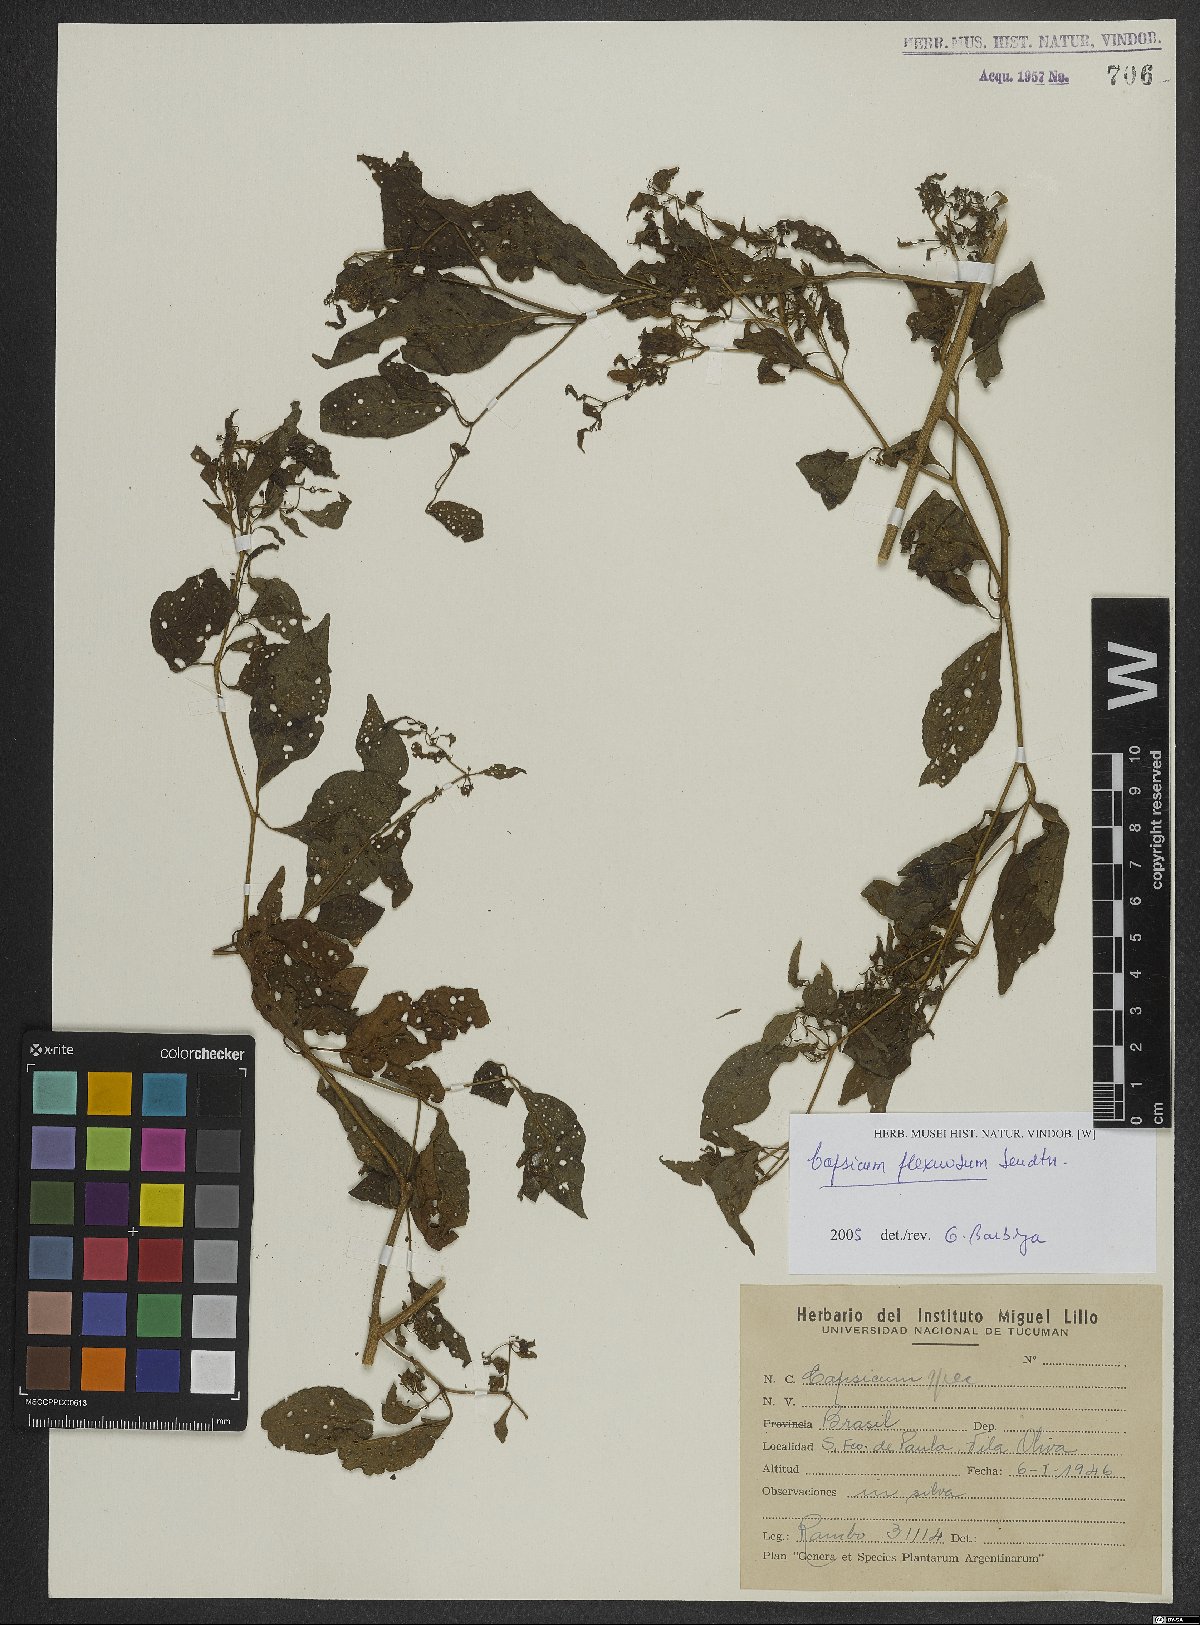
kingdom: Plantae
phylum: Tracheophyta
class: Magnoliopsida
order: Solanales
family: Solanaceae
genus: Capsicum
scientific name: Capsicum flexuosum
